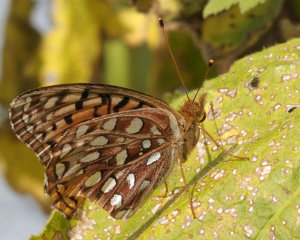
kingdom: Animalia
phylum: Arthropoda
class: Insecta
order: Lepidoptera
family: Nymphalidae
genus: Speyeria
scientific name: Speyeria aphrodite
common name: Aphrodite Fritillary
